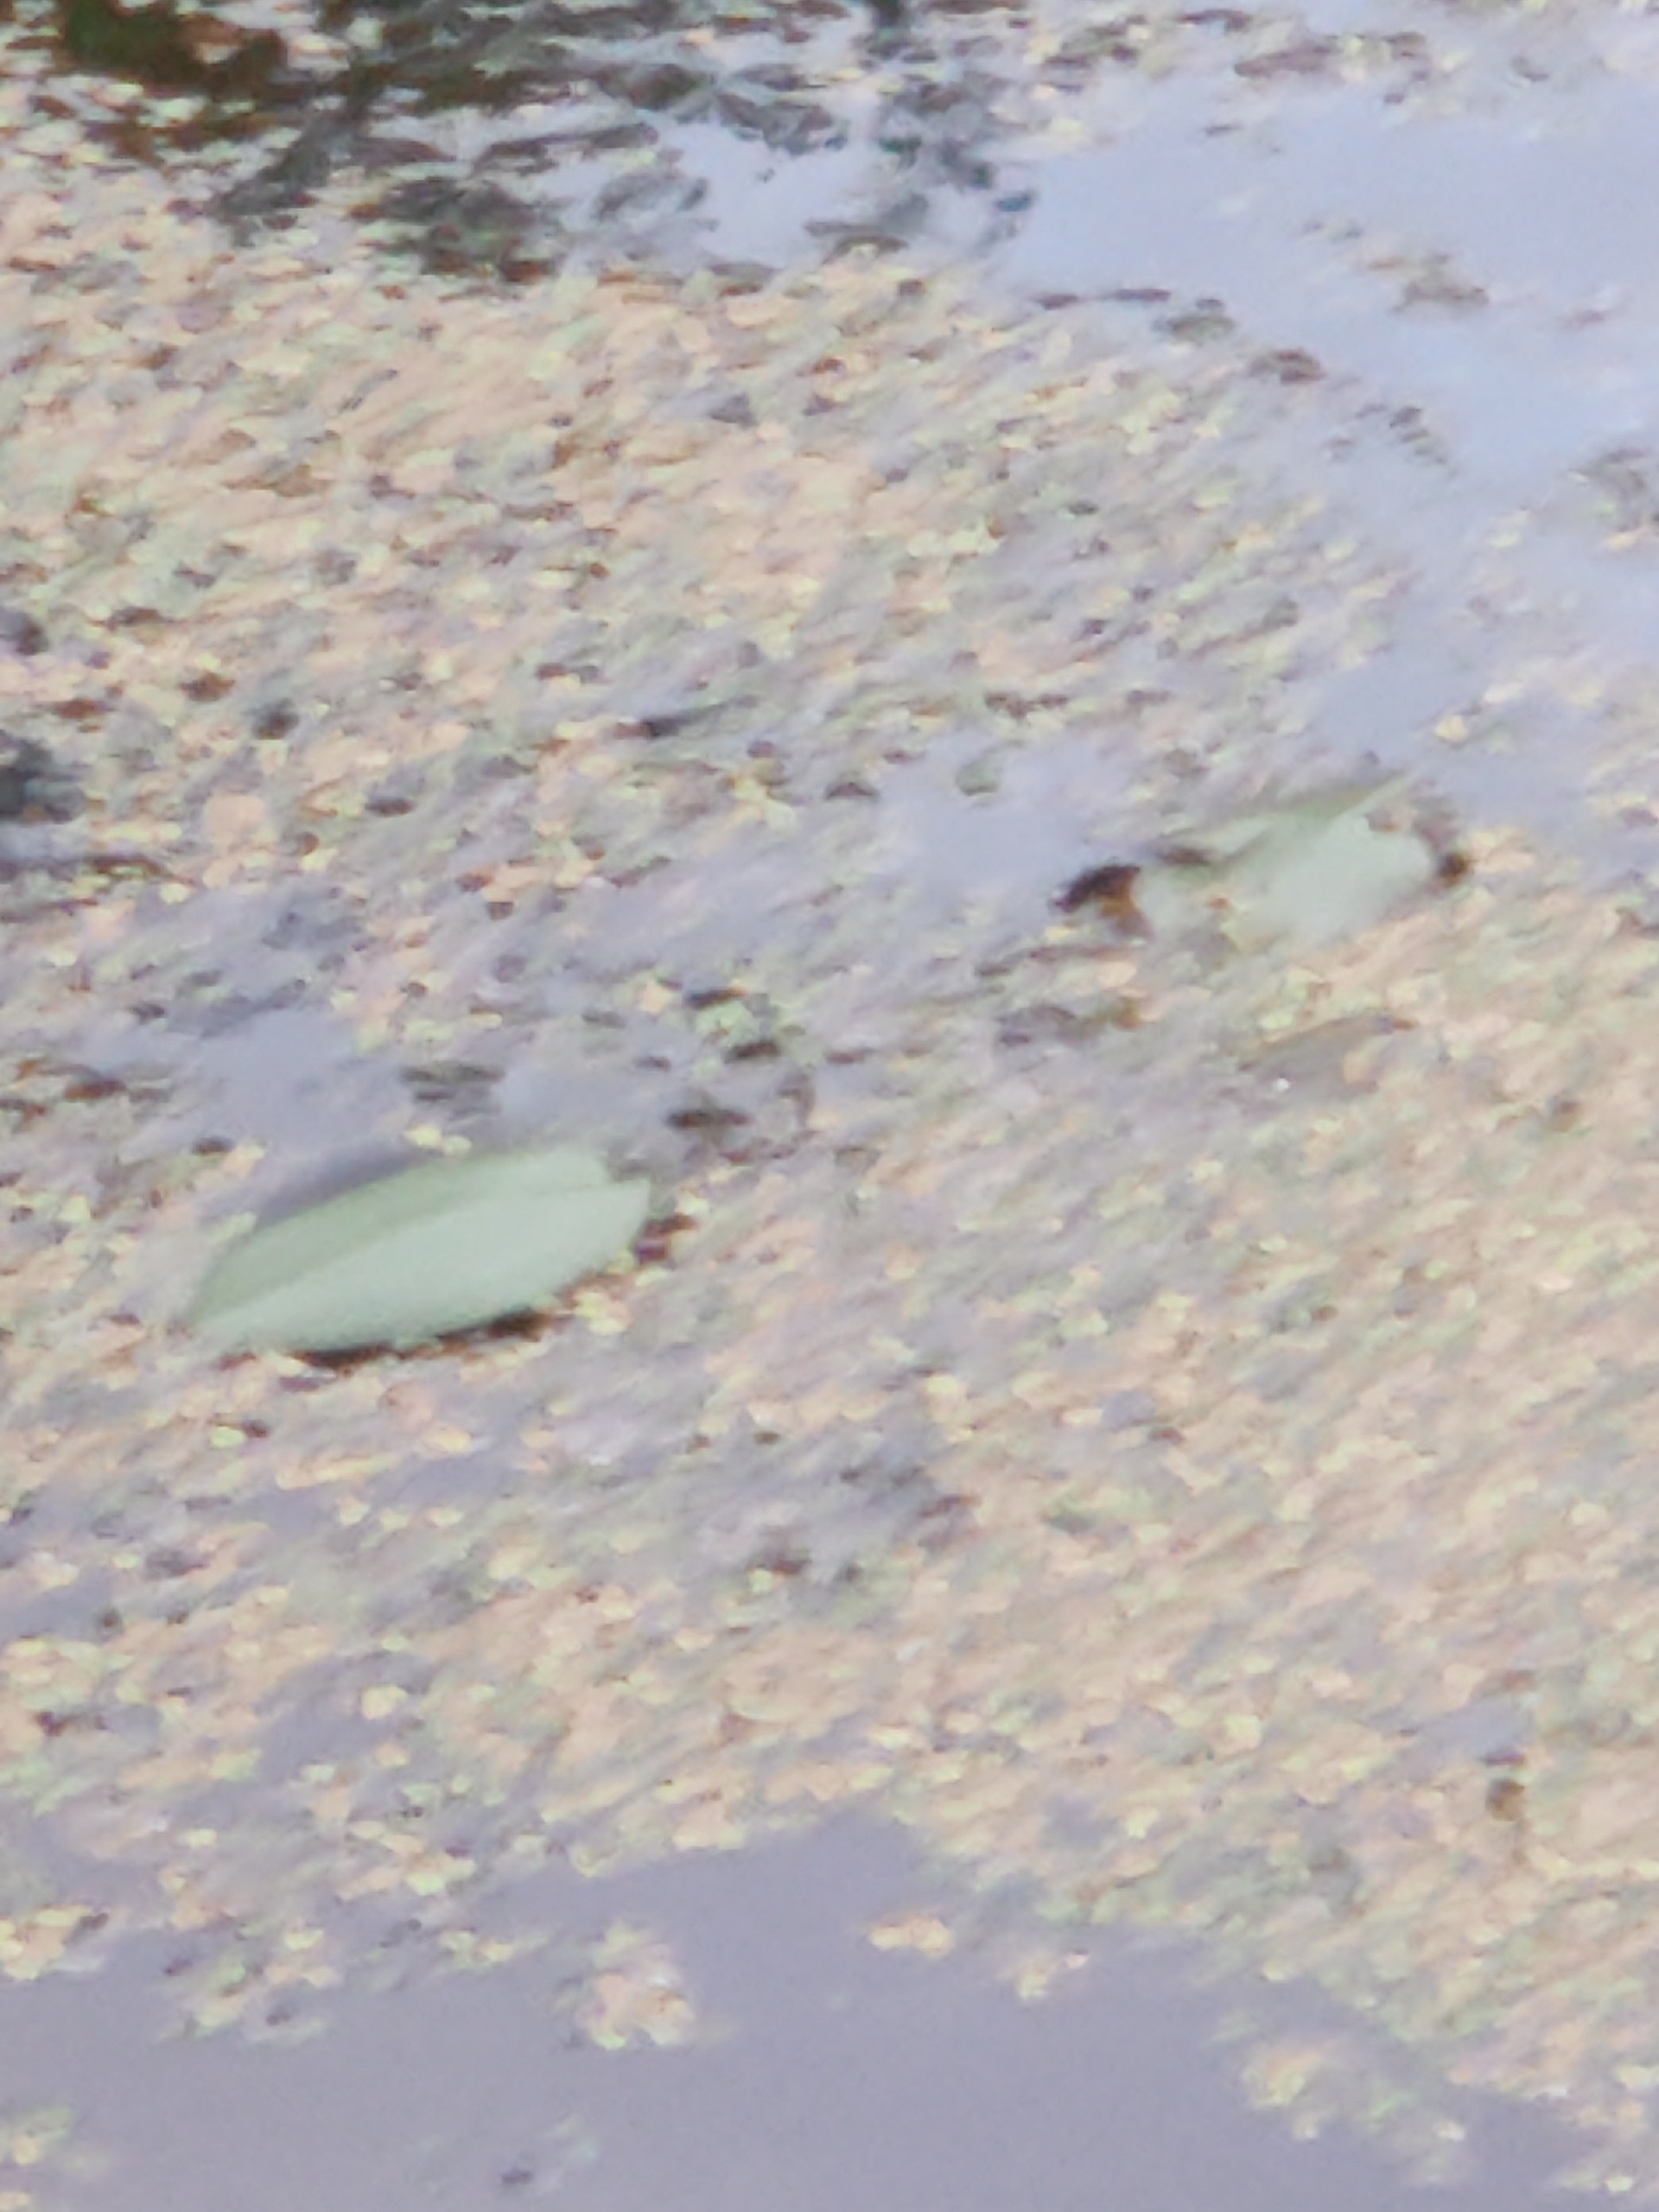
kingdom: Plantae
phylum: Tracheophyta
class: Liliopsida
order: Alismatales
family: Potamogetonaceae
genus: Potamogeton
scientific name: Potamogeton natans
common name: Svømmende vandaks
